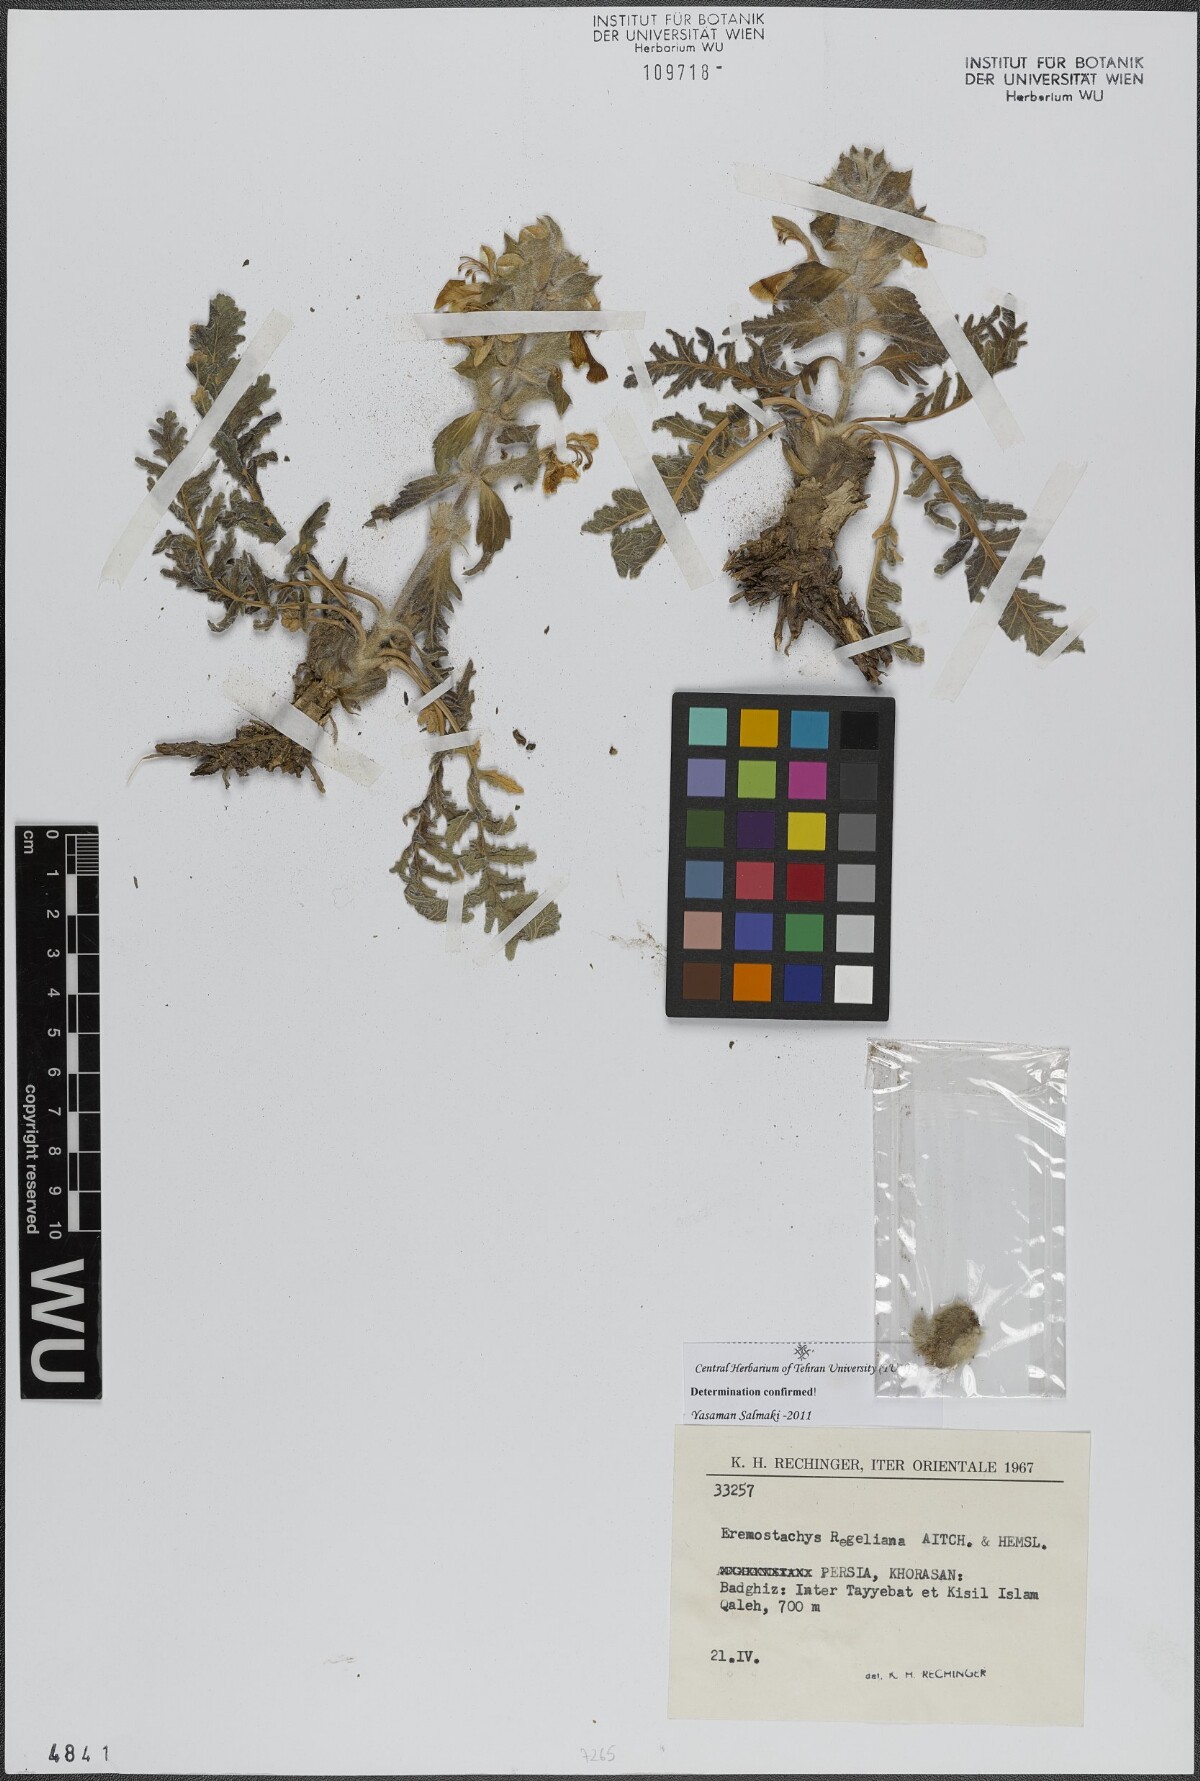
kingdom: Plantae
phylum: Tracheophyta
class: Magnoliopsida
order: Lamiales
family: Lamiaceae
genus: Phlomoides
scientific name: Phlomoides regeliana
